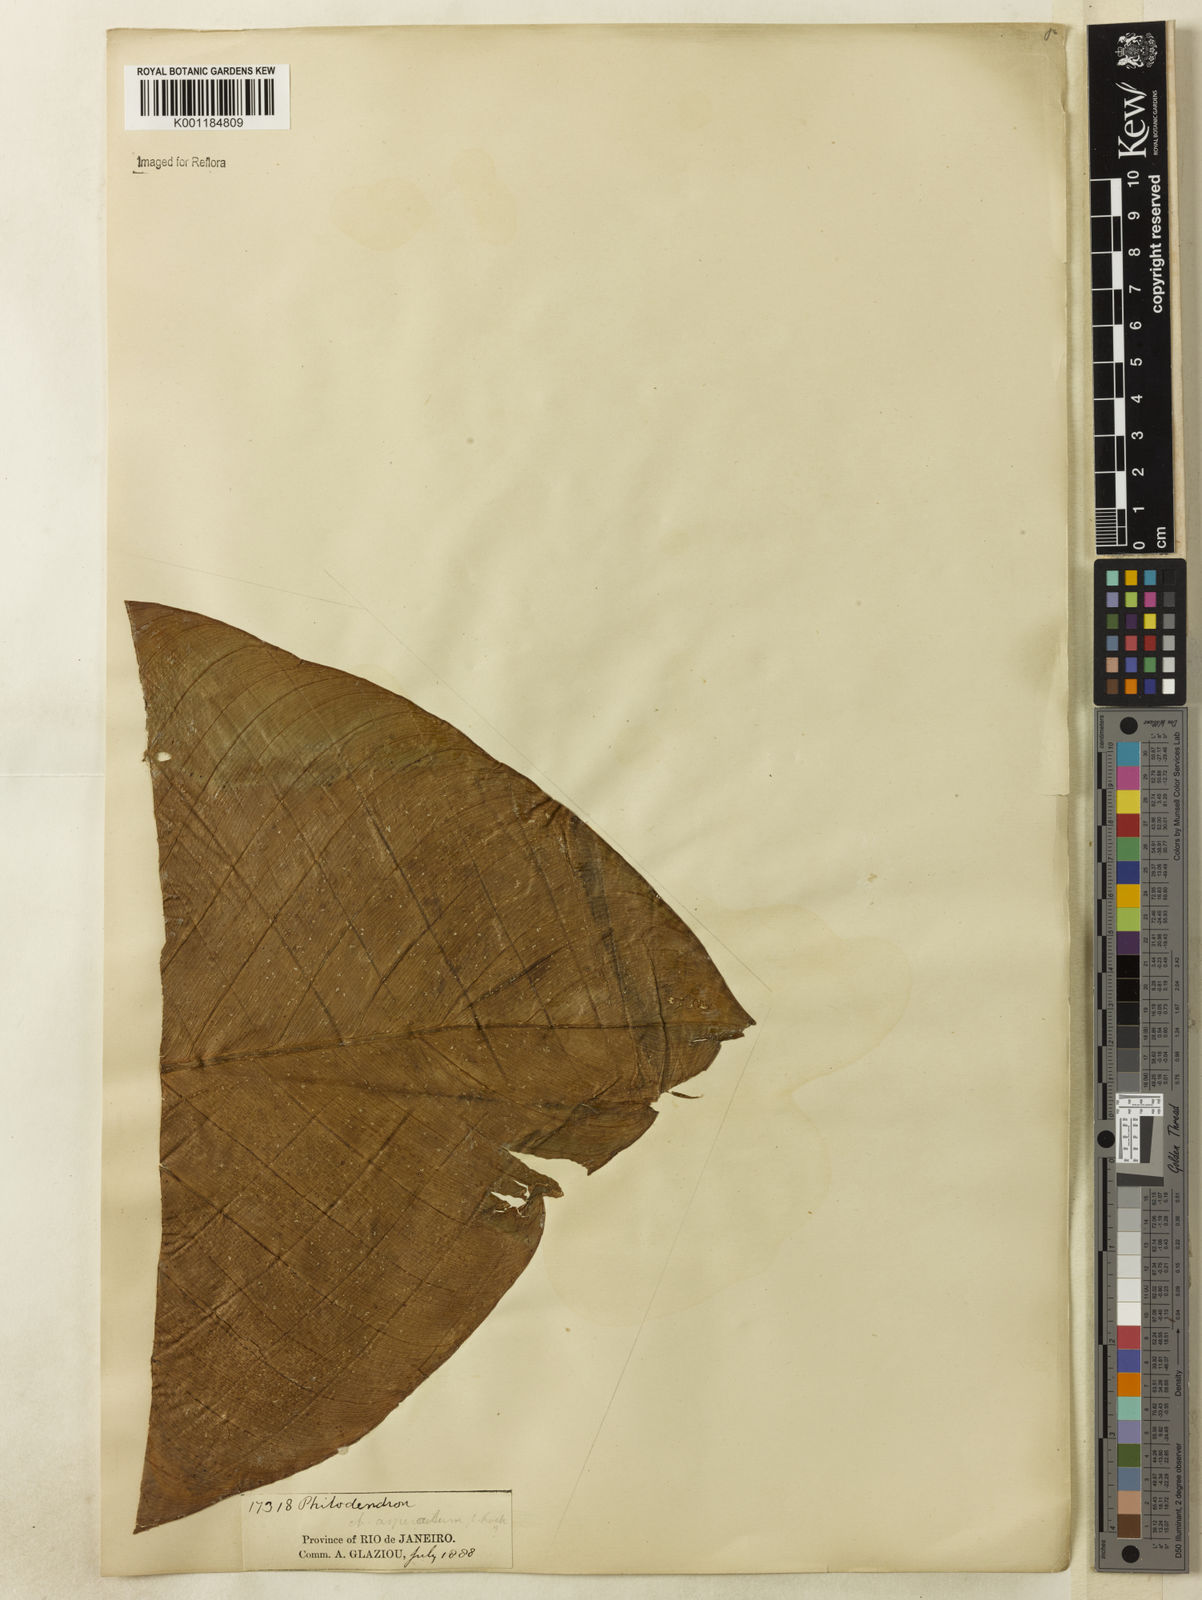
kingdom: Plantae
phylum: Tracheophyta
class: Liliopsida
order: Alismatales
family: Araceae
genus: Philodendron
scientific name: Philodendron ornatum
